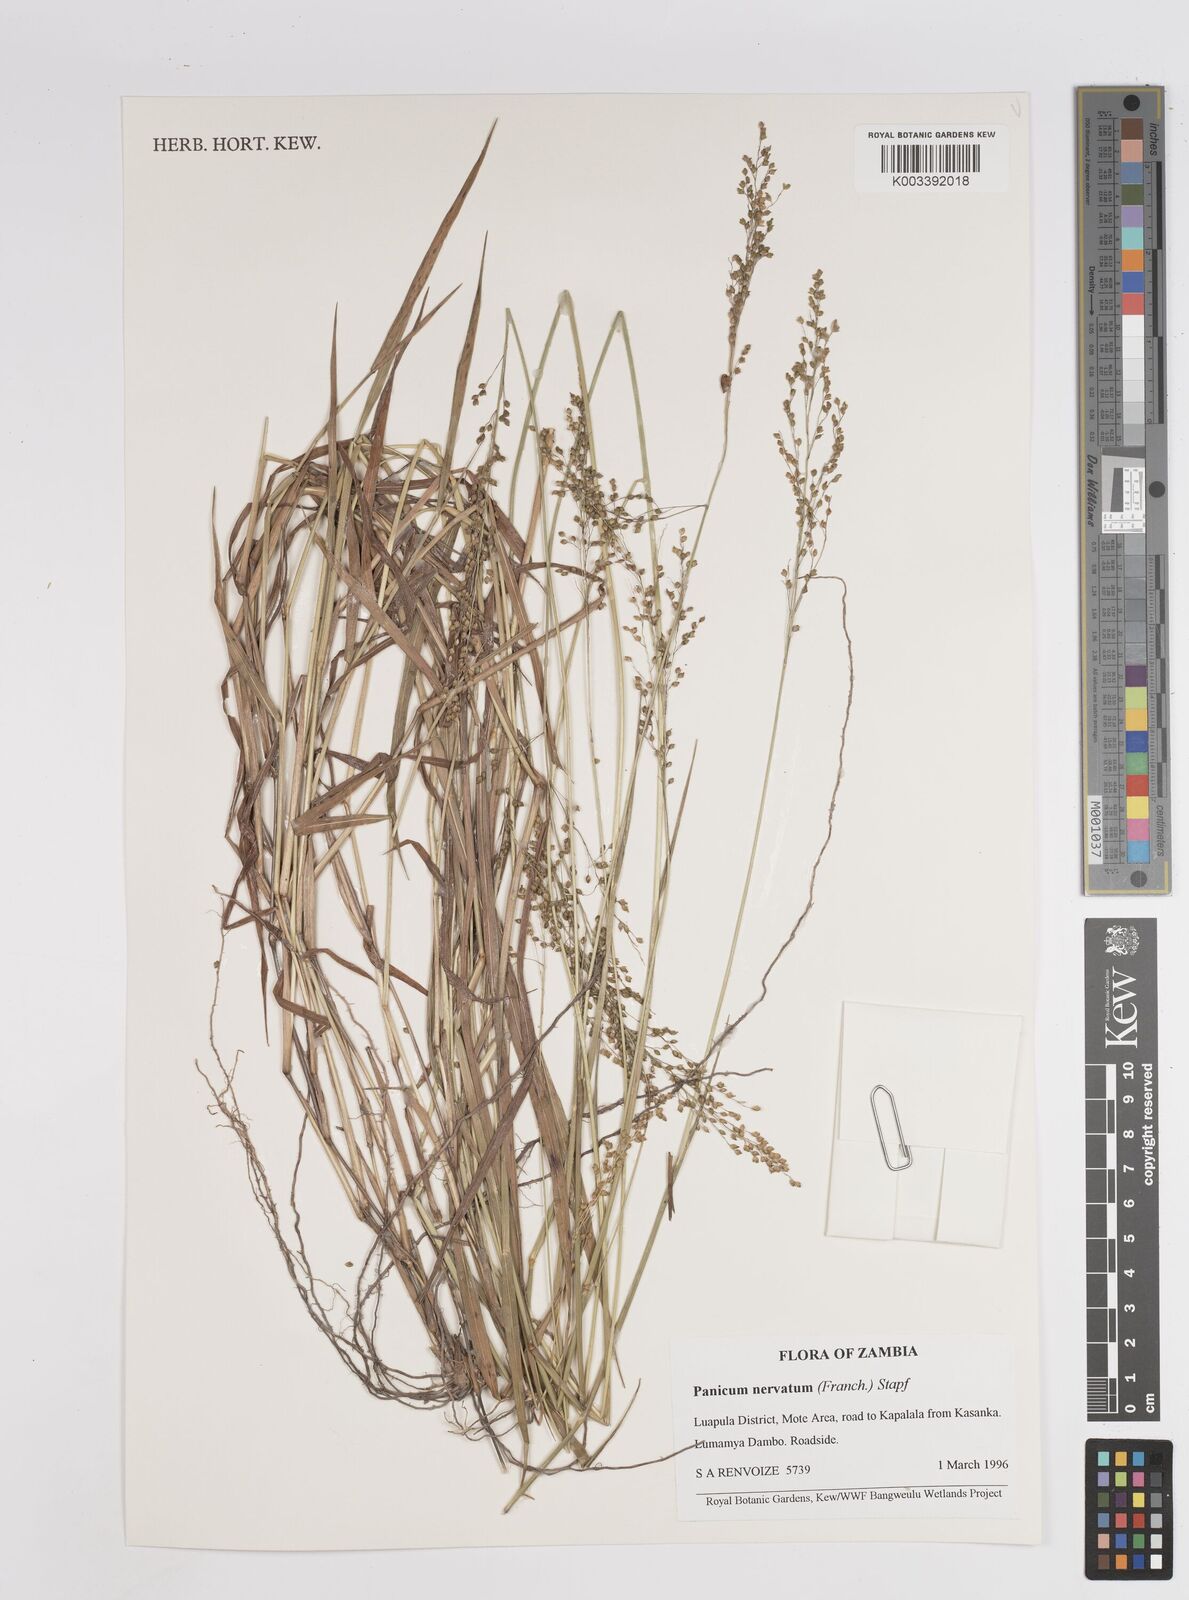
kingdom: Plantae
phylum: Tracheophyta
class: Liliopsida
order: Poales
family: Poaceae
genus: Trichanthecium
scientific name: Trichanthecium nervatum
